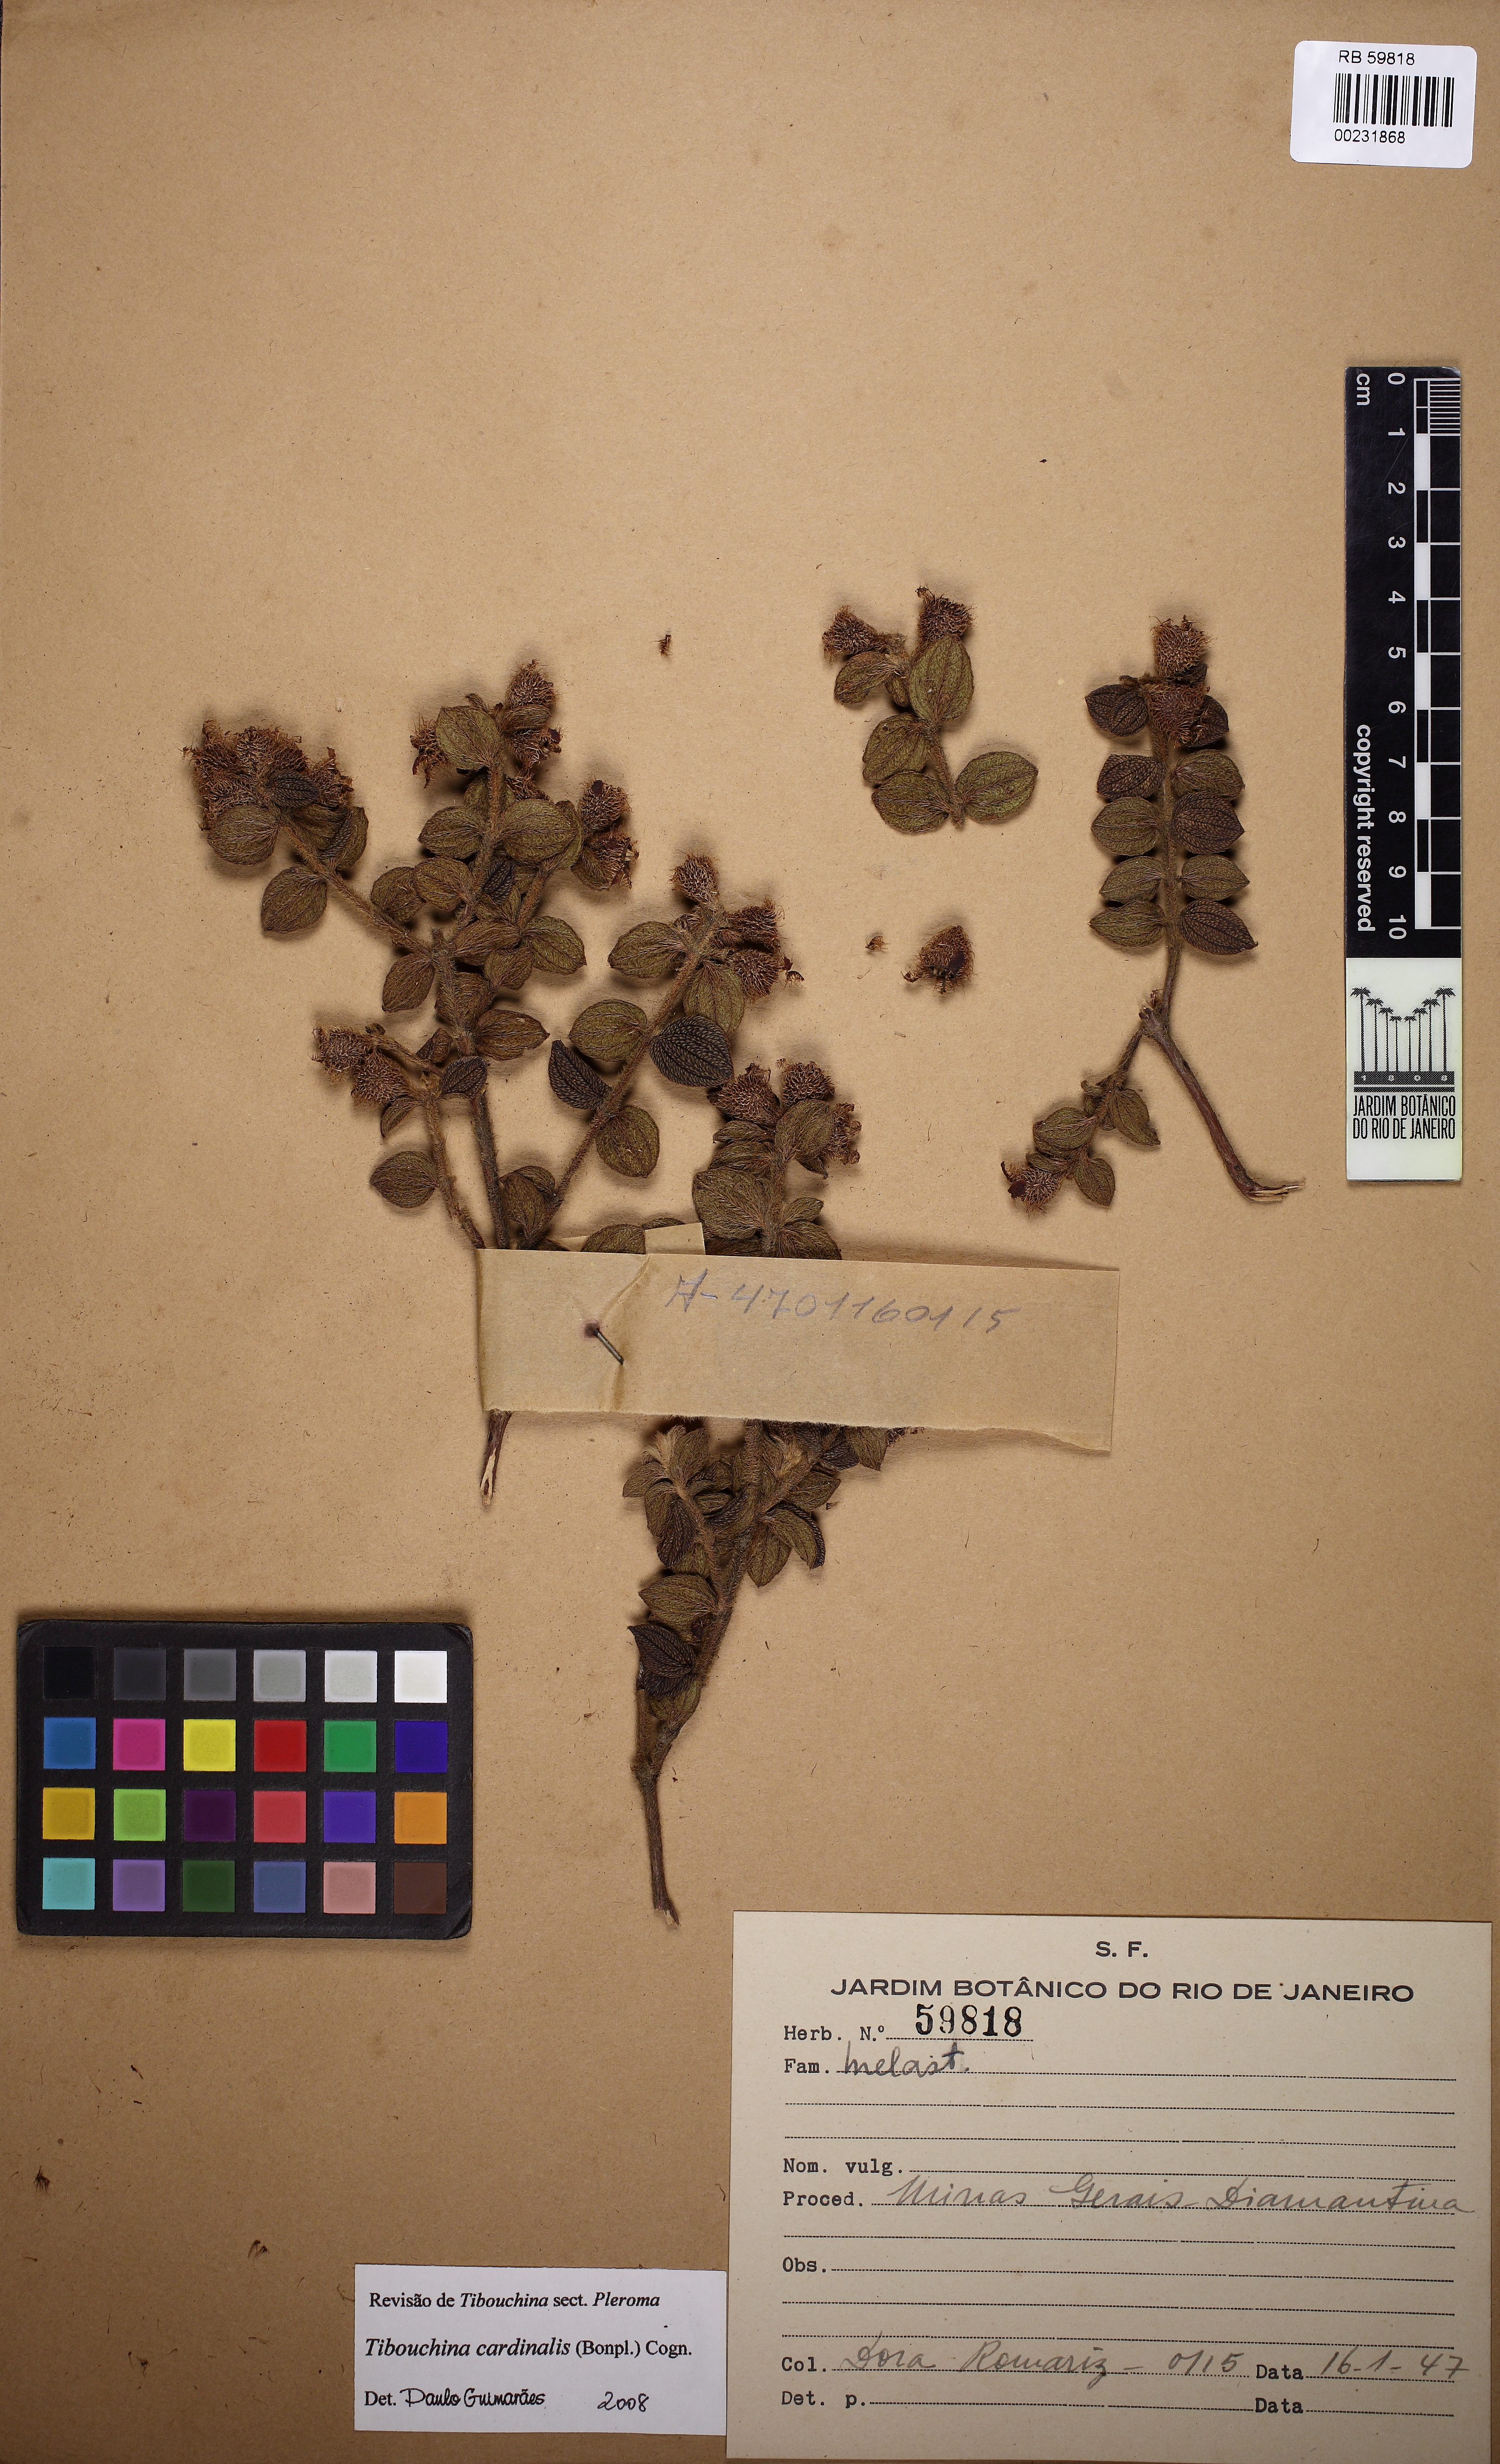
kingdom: Plantae
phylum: Tracheophyta
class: Magnoliopsida
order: Myrtales
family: Melastomataceae
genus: Chaetogastra
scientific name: Chaetogastra cardinalis
